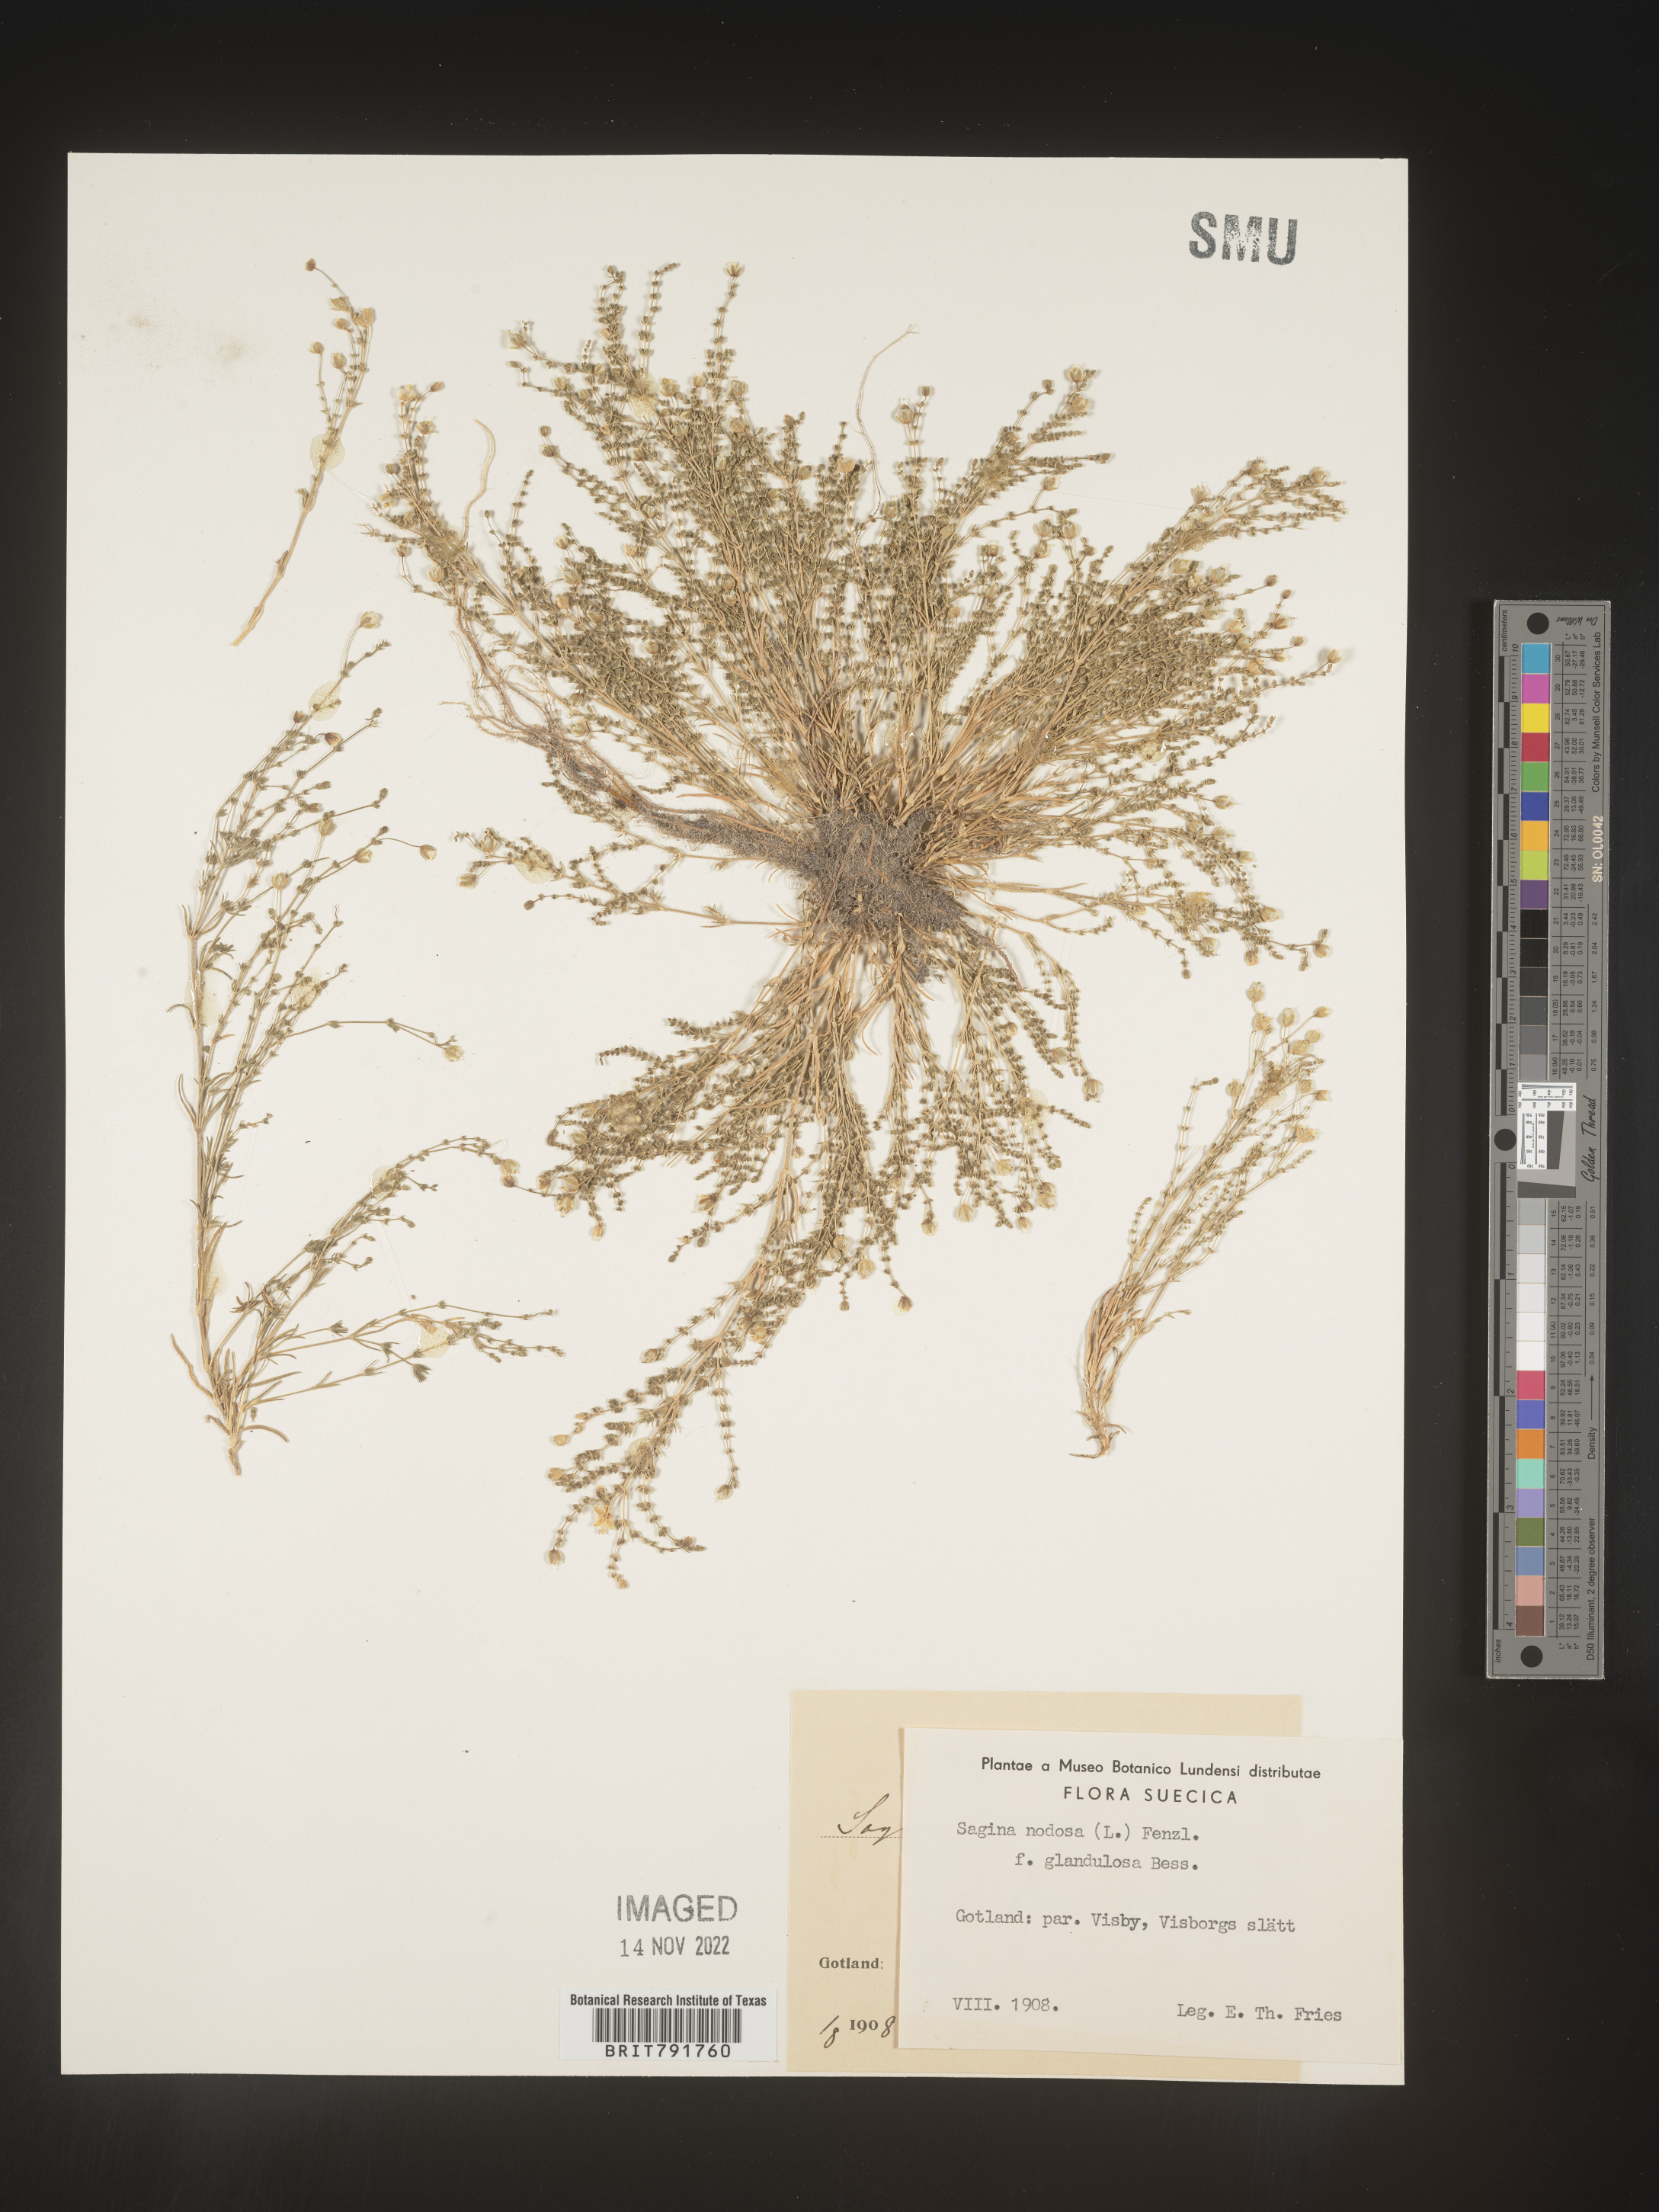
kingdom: Plantae
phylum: Tracheophyta
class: Magnoliopsida
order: Caryophyllales
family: Caryophyllaceae
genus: Sagina
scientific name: Sagina
